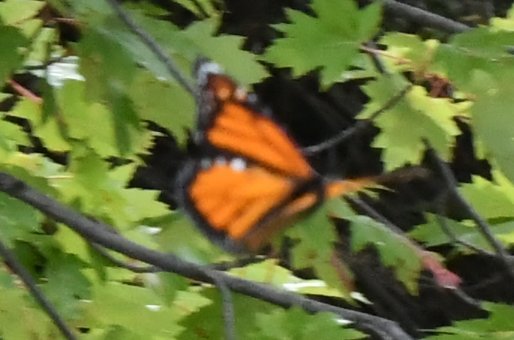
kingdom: Animalia
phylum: Arthropoda
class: Insecta
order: Lepidoptera
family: Nymphalidae
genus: Danaus
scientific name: Danaus plexippus
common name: Monarch
